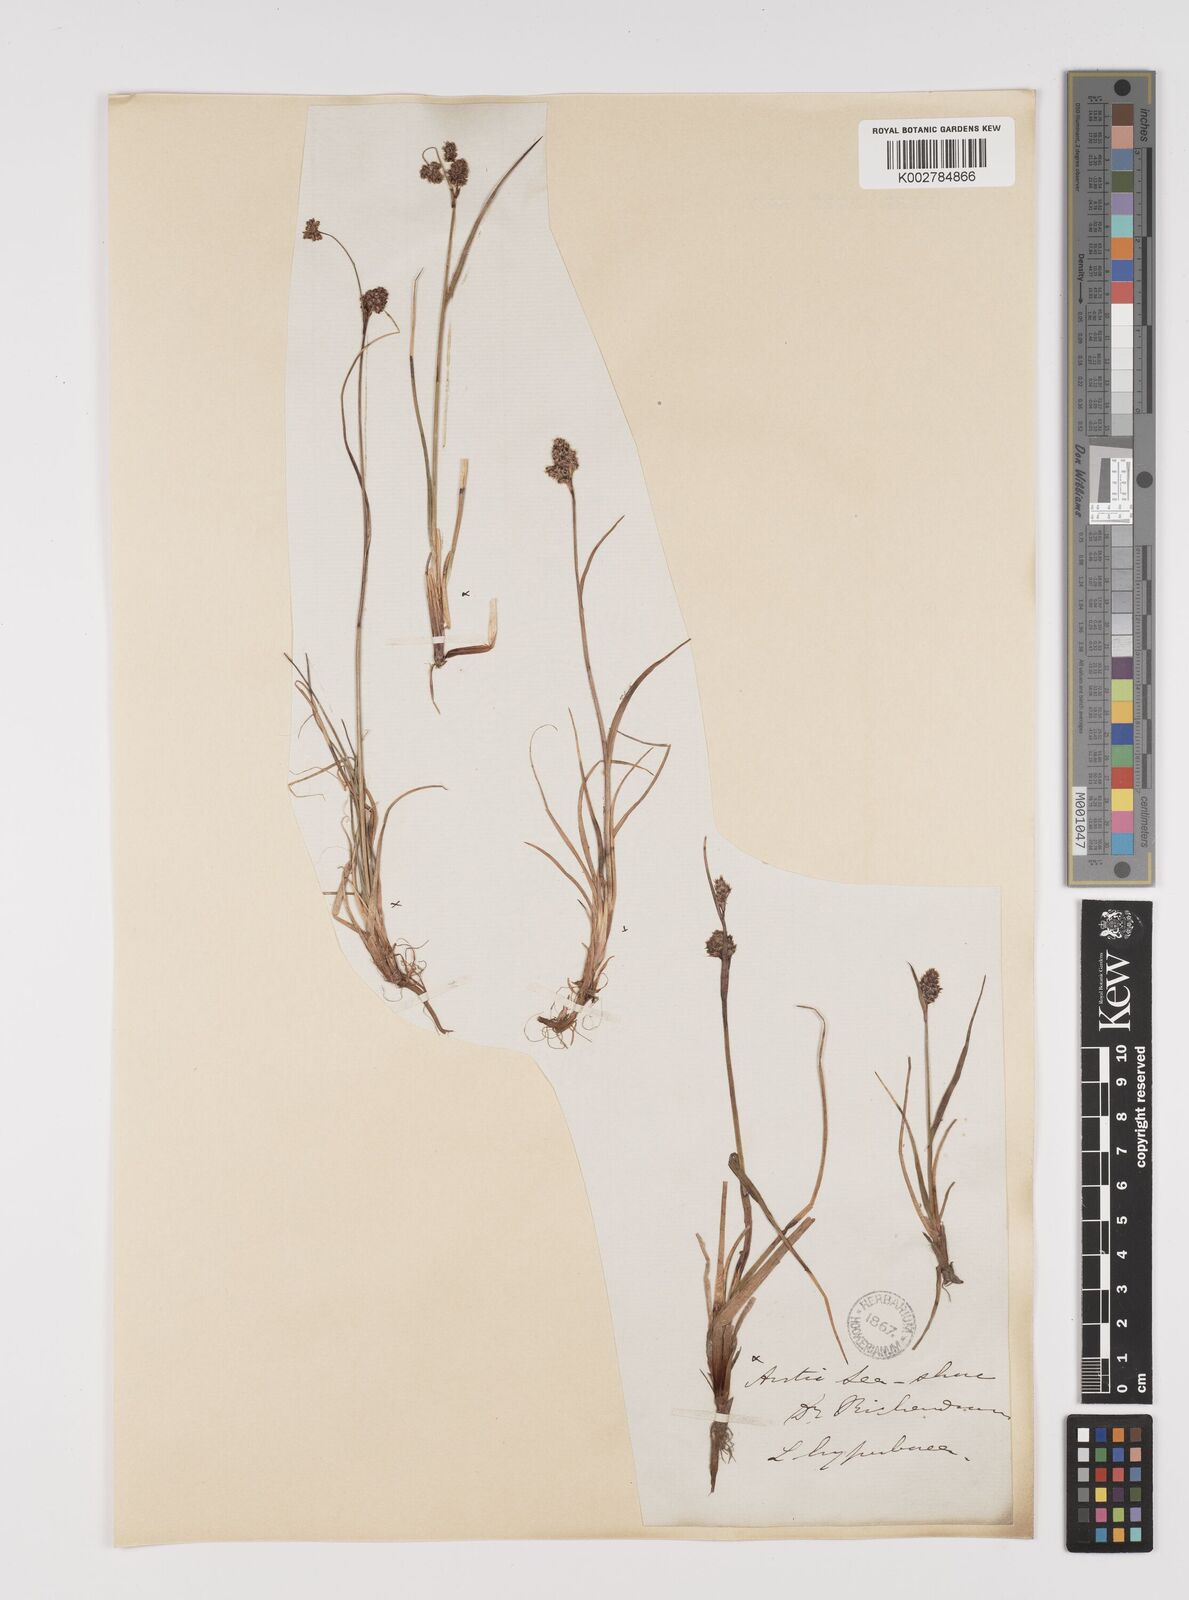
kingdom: Plantae
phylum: Tracheophyta
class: Liliopsida
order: Poales
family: Juncaceae
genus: Luzula
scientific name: Luzula confusa
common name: Northern wood rush
